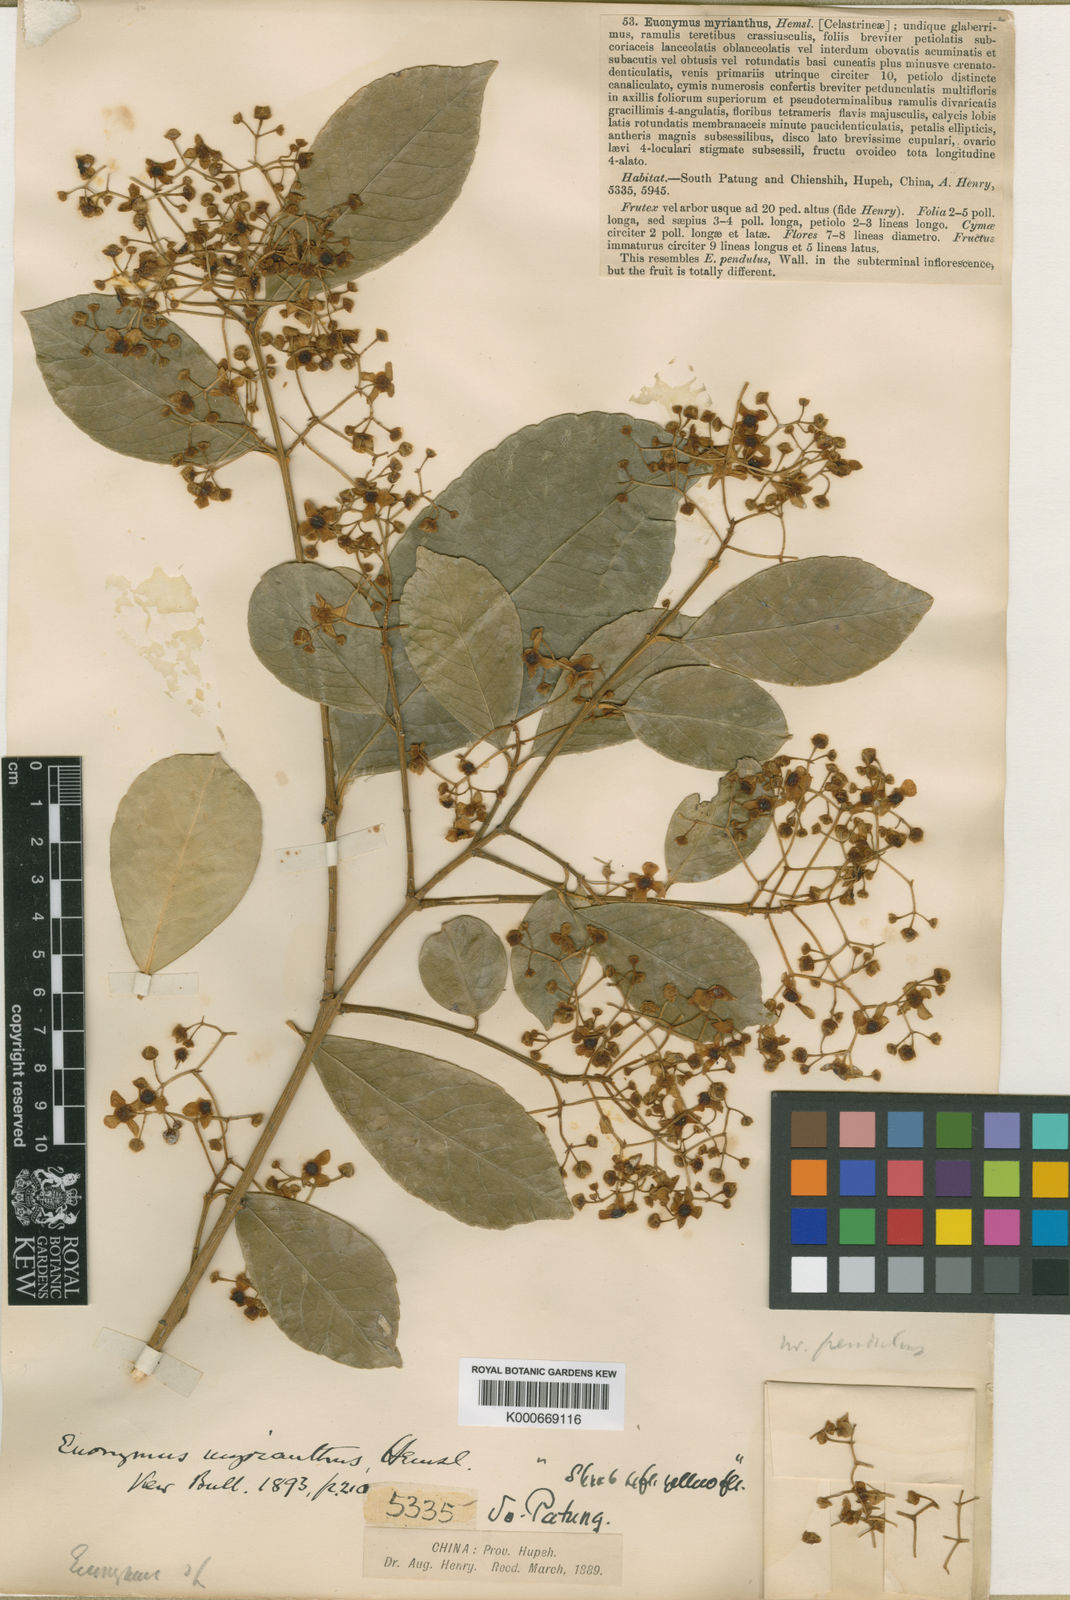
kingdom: Plantae
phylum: Tracheophyta
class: Magnoliopsida
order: Celastrales
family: Celastraceae
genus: Euonymus
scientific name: Euonymus myrianthus
